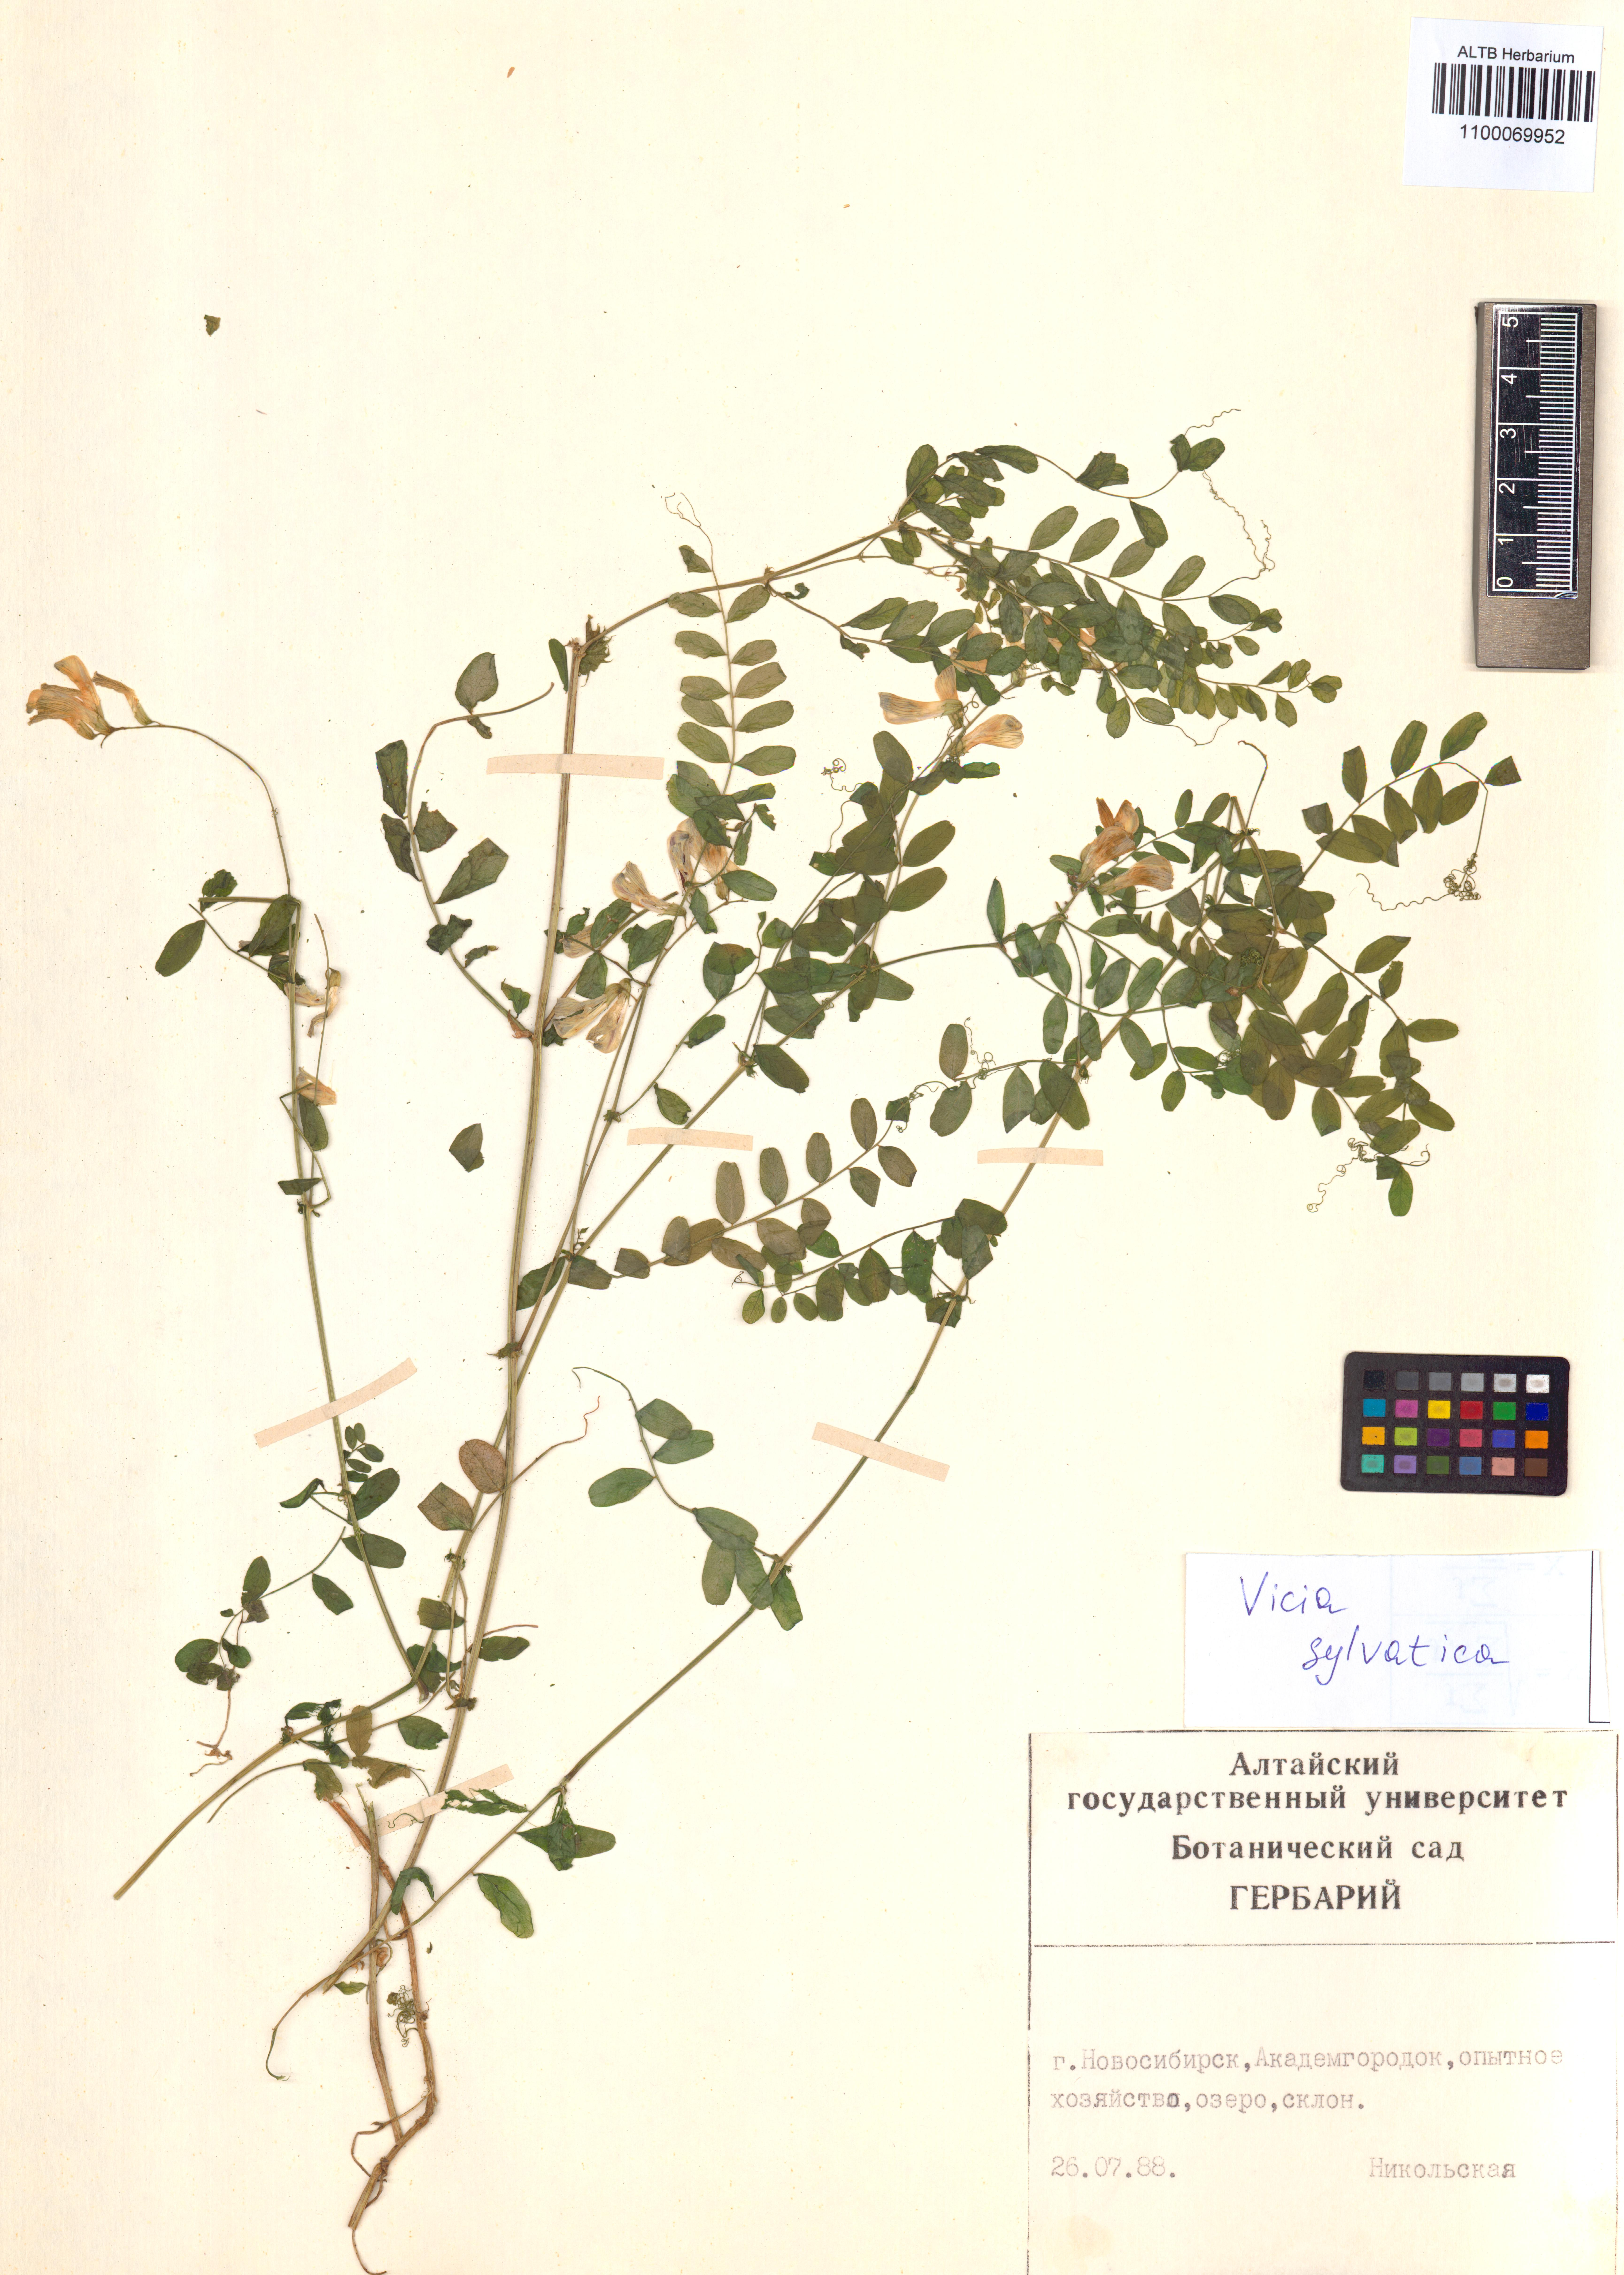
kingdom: Plantae
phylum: Tracheophyta
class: Magnoliopsida
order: Fabales
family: Fabaceae
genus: Vicia
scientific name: Vicia bakeri
